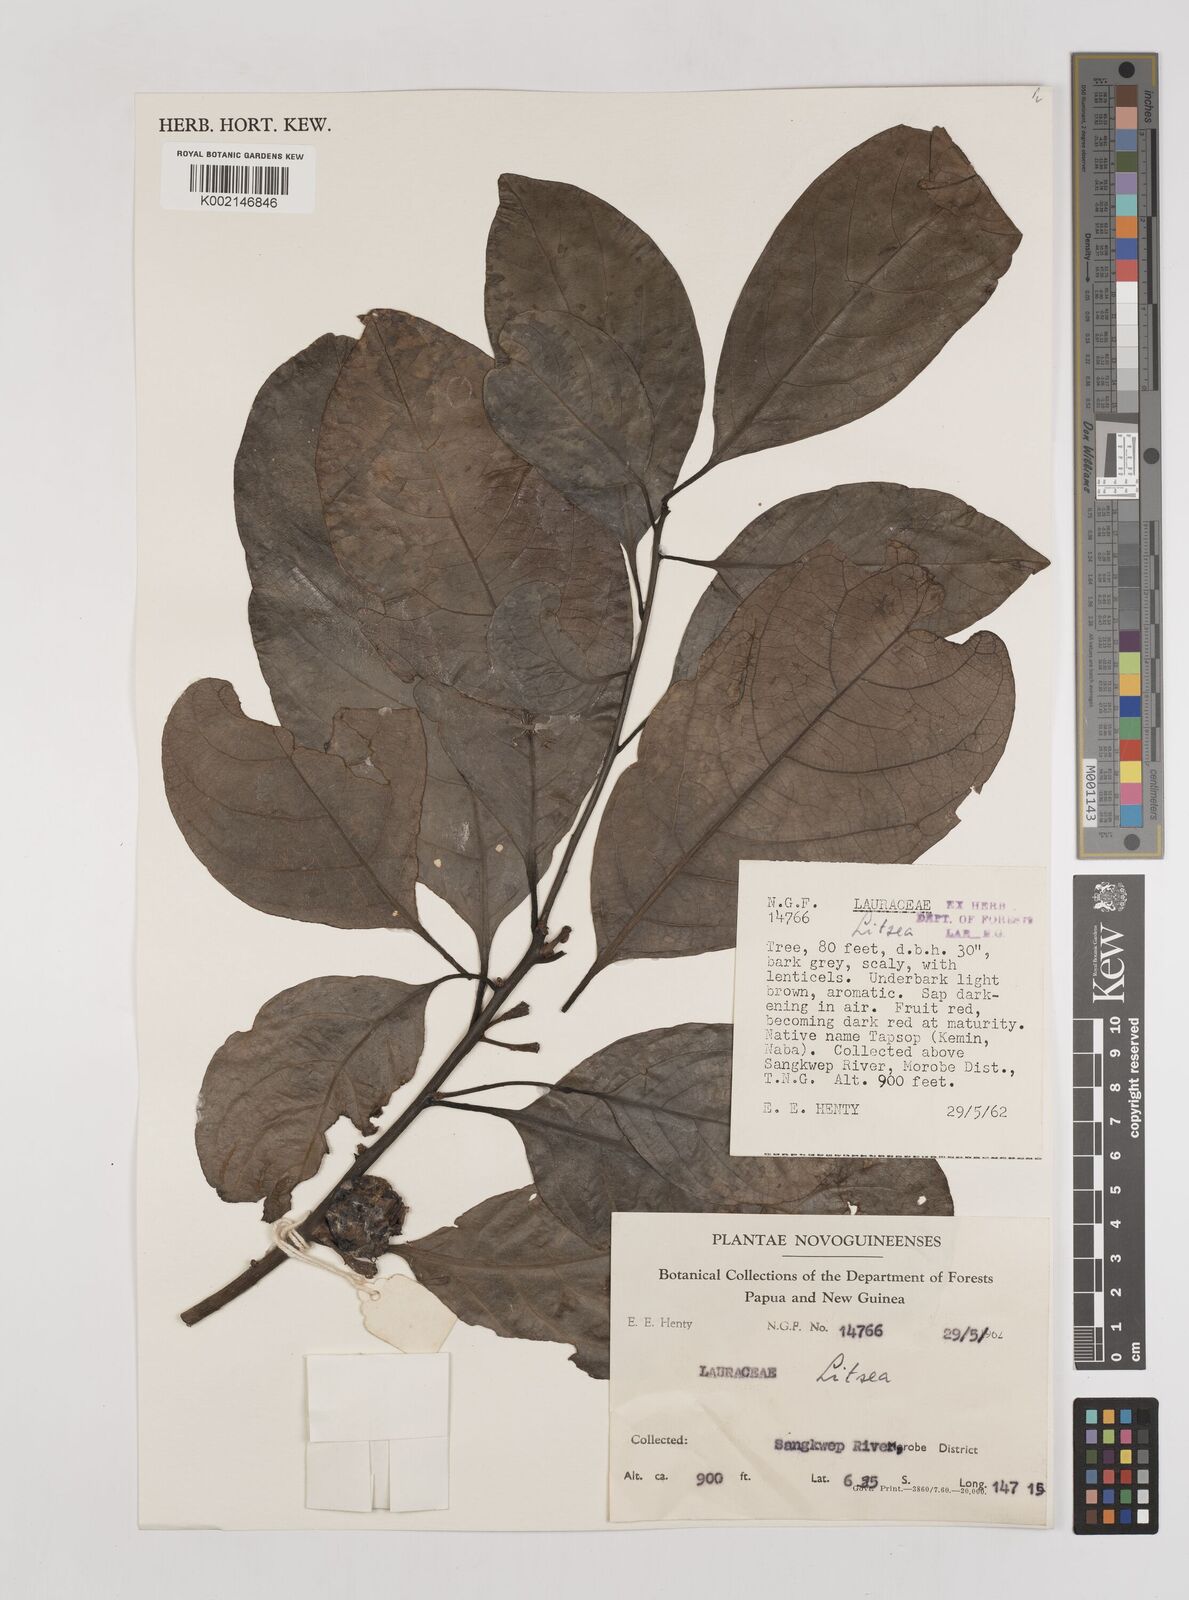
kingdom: Plantae
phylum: Tracheophyta
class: Magnoliopsida
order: Laurales
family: Lauraceae
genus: Litsea
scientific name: Litsea
